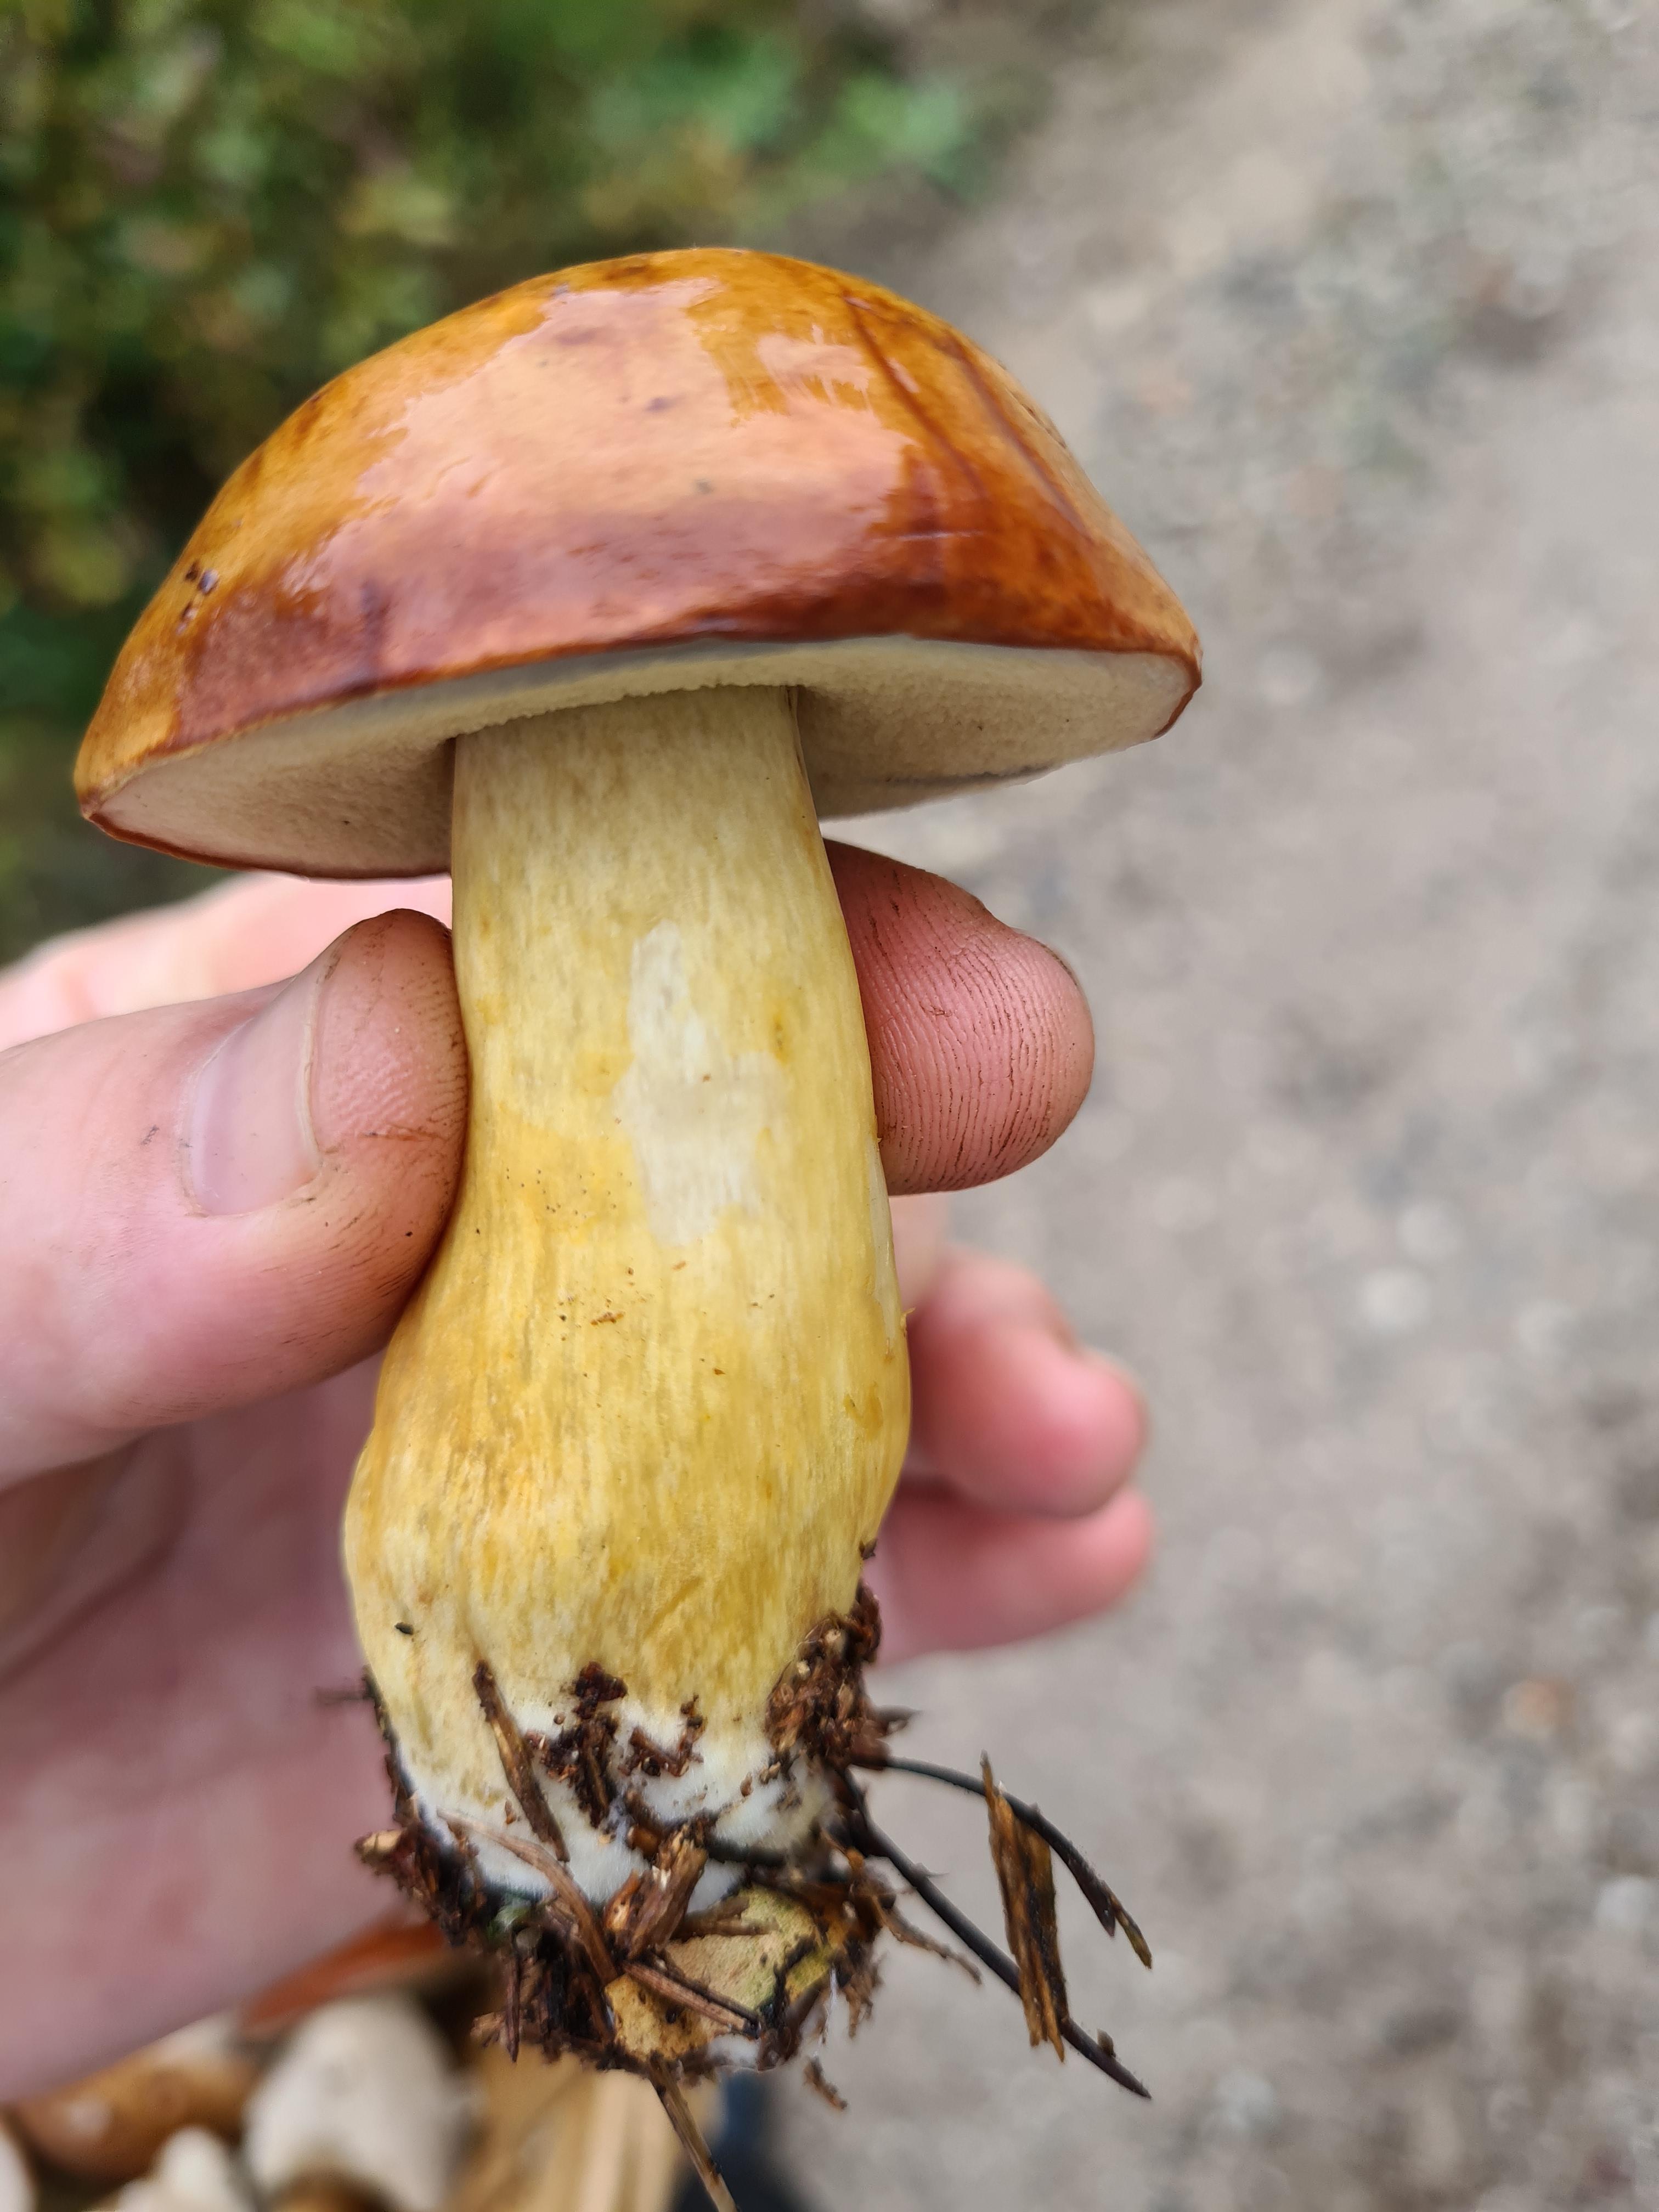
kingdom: Fungi
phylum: Basidiomycota
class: Agaricomycetes
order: Boletales
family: Boletaceae
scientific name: Boletaceae
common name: rørhatfamilien
